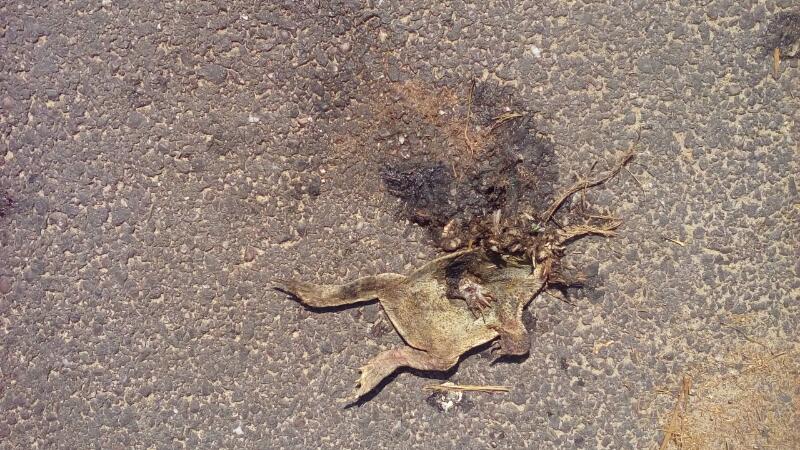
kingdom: Animalia
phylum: Chordata
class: Amphibia
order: Anura
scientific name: Anura
